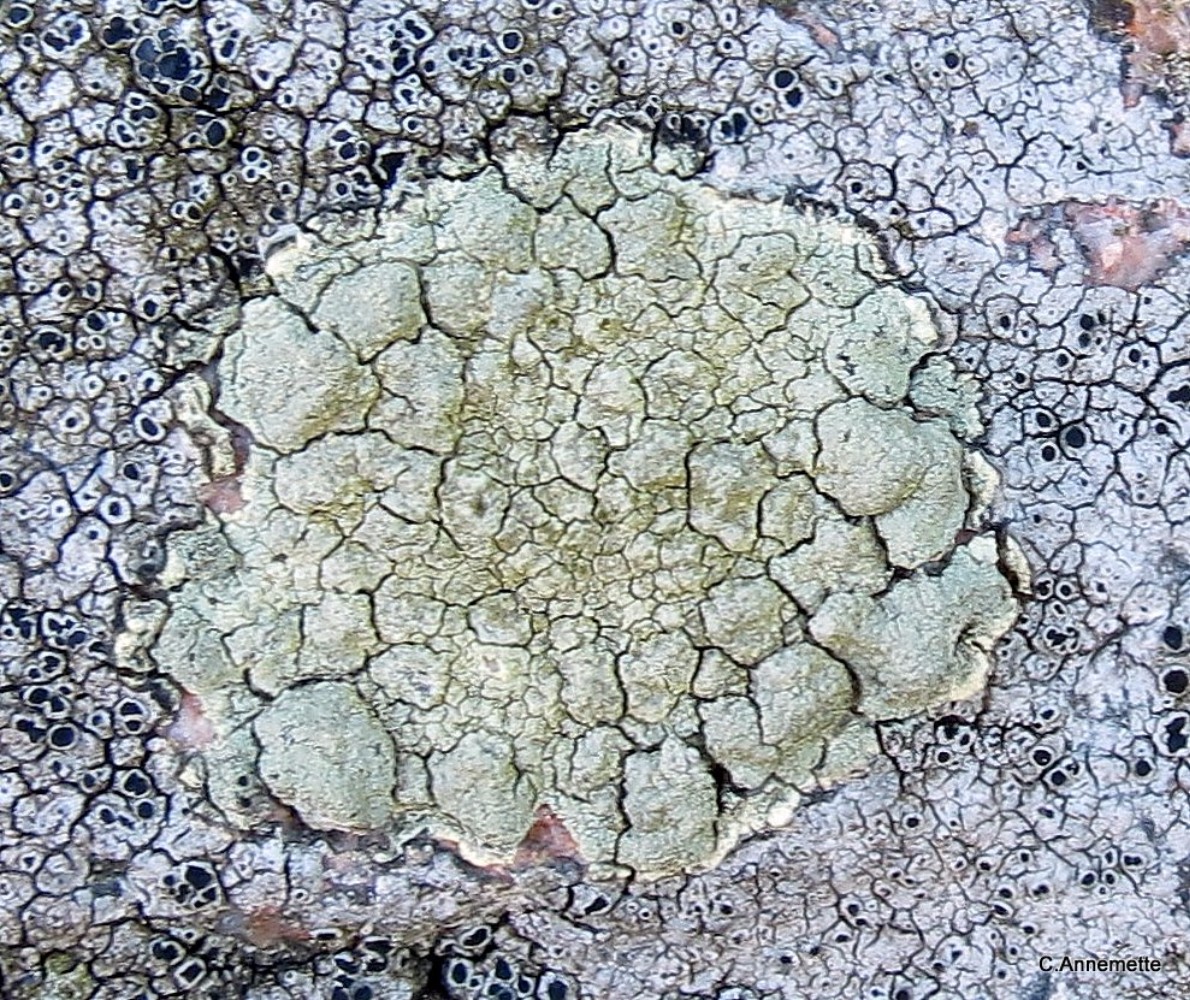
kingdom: Fungi
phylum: Ascomycota
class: Lecanoromycetes
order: Lecanorales
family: Lecanoraceae
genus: Glaucomaria
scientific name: Glaucomaria sulphurea
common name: svovlgul kantskivelav
